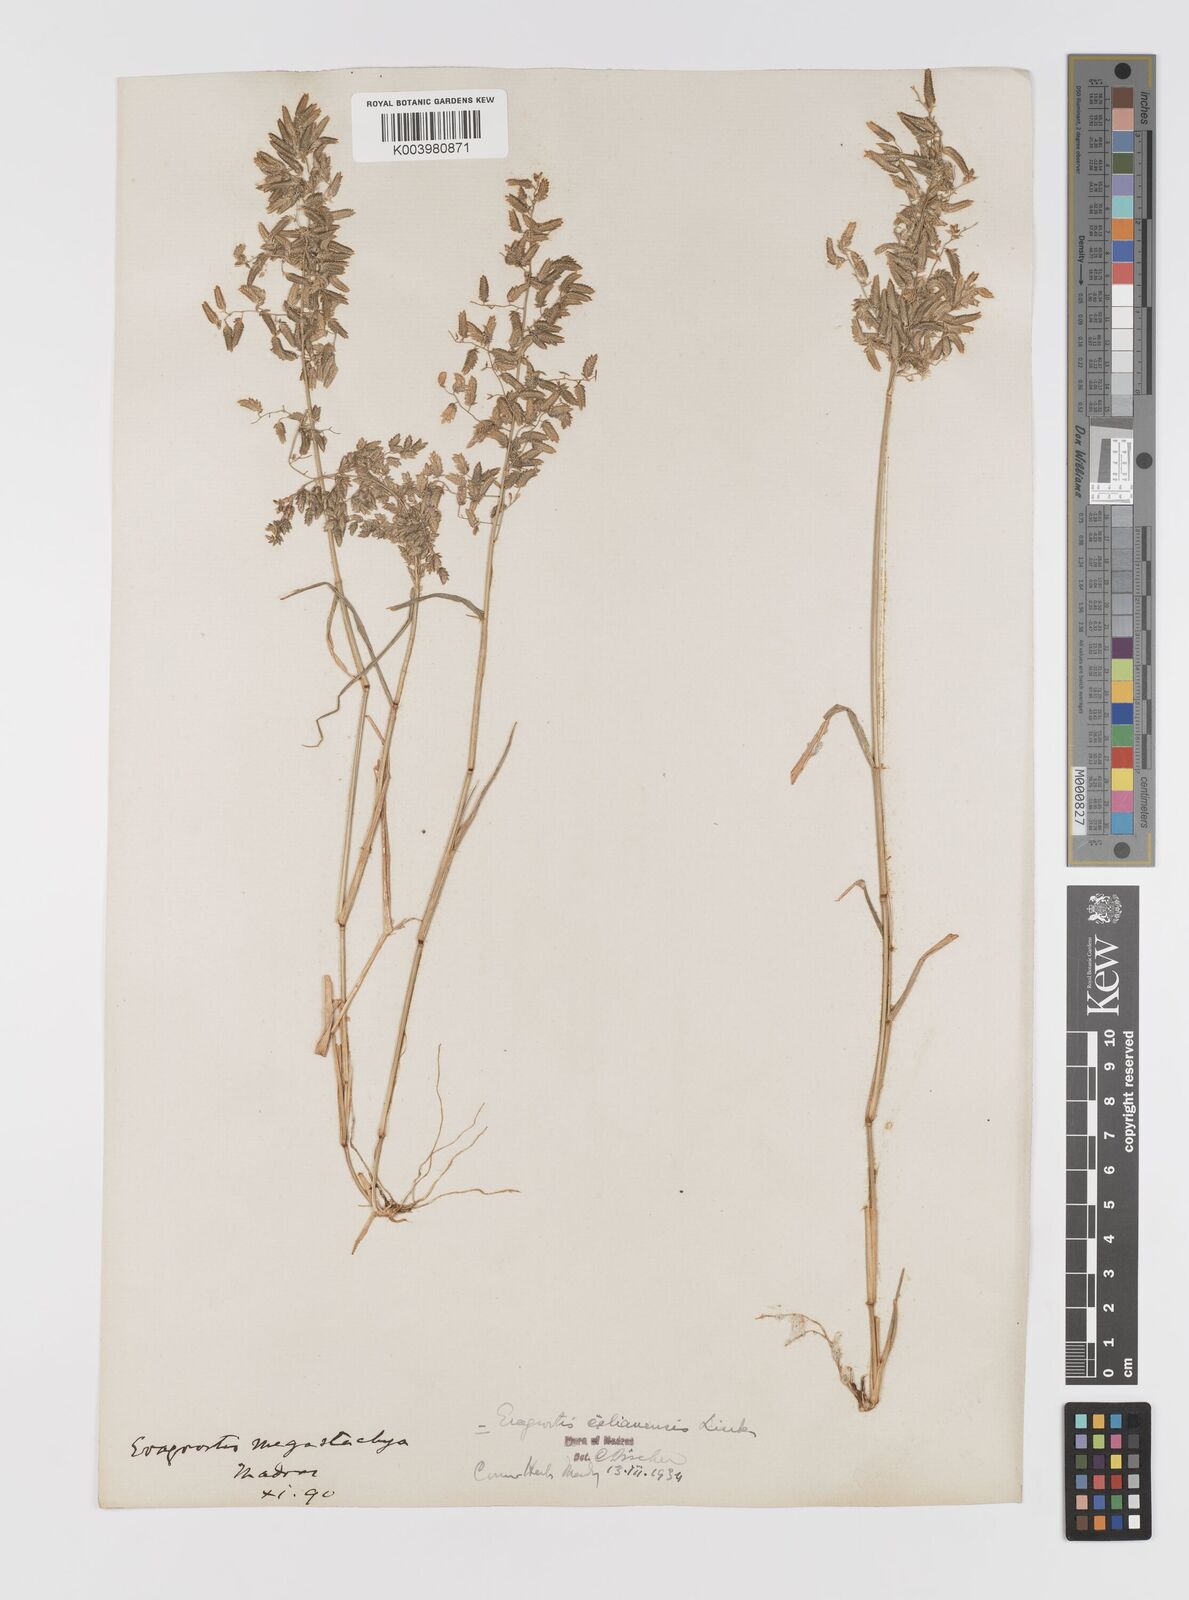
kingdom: Plantae
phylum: Tracheophyta
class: Liliopsida
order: Poales
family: Poaceae
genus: Eragrostis
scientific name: Eragrostis cilianensis
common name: Stinkgrass
